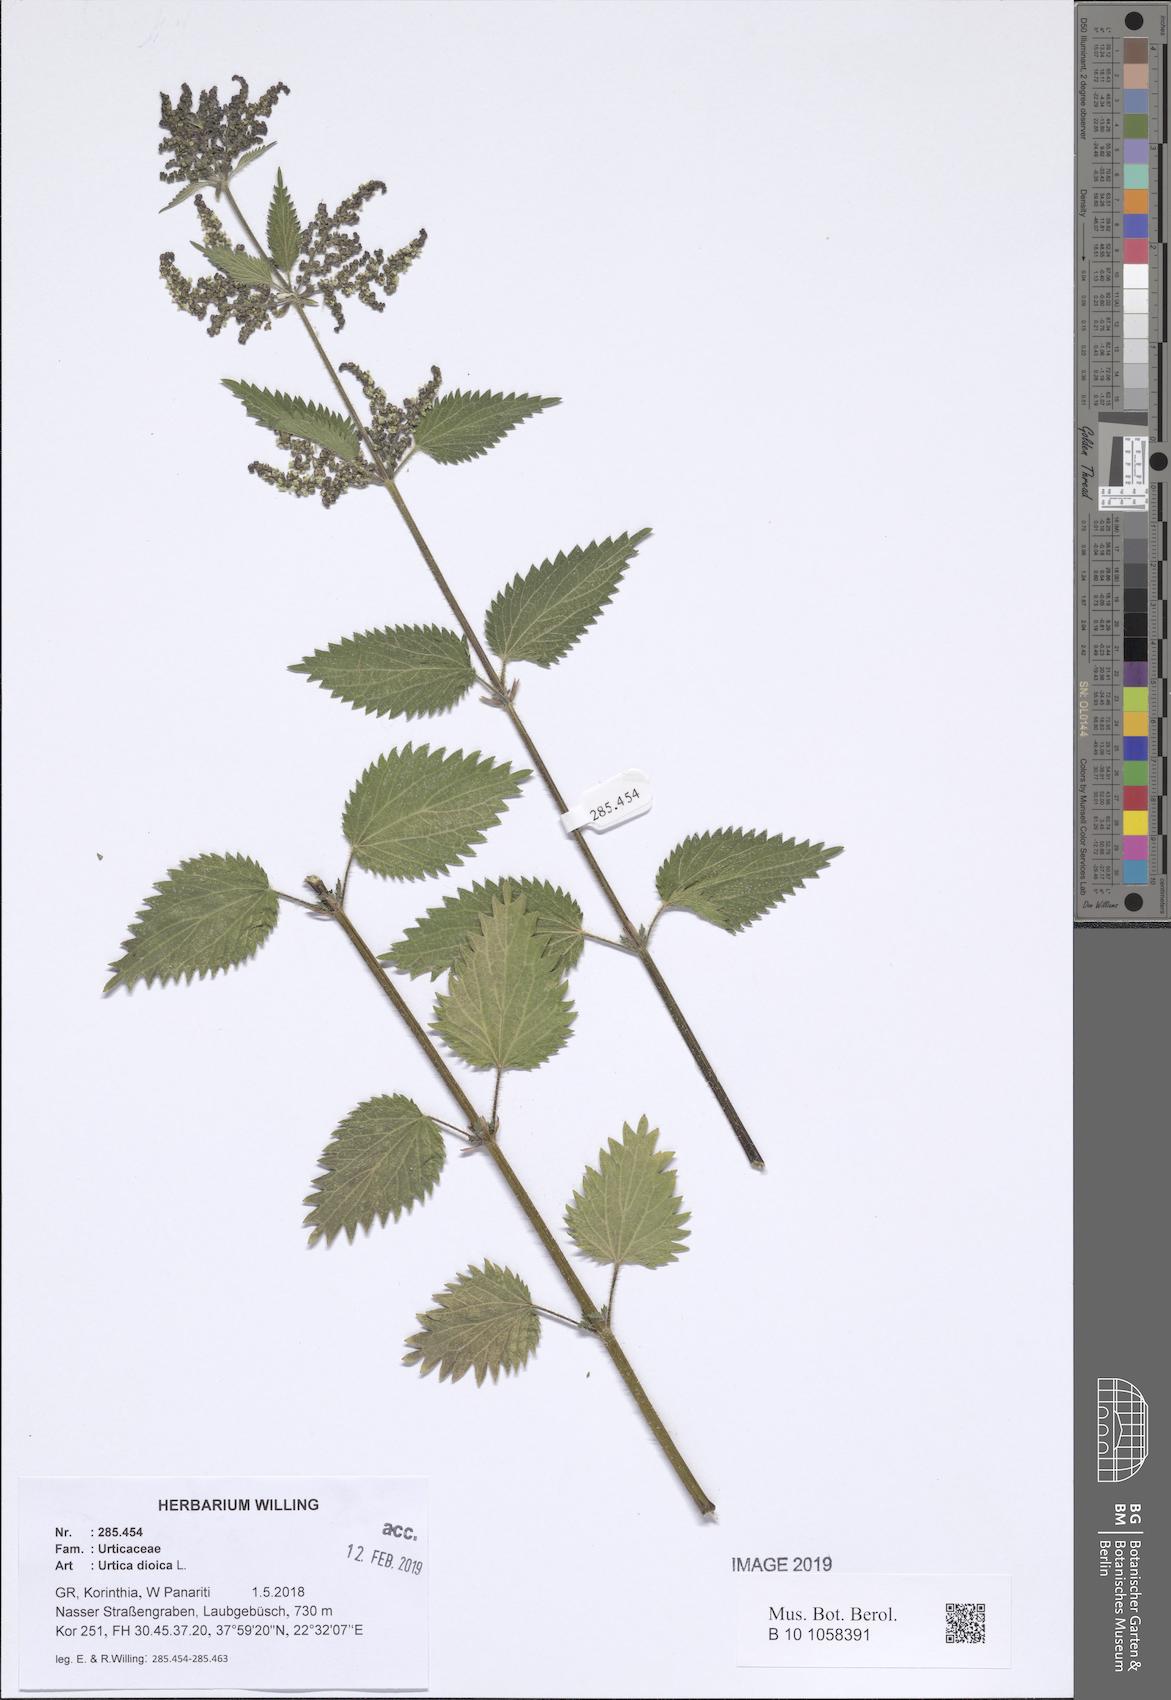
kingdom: Plantae
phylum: Tracheophyta
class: Magnoliopsida
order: Rosales
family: Urticaceae
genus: Urtica
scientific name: Urtica dioica
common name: Common nettle
